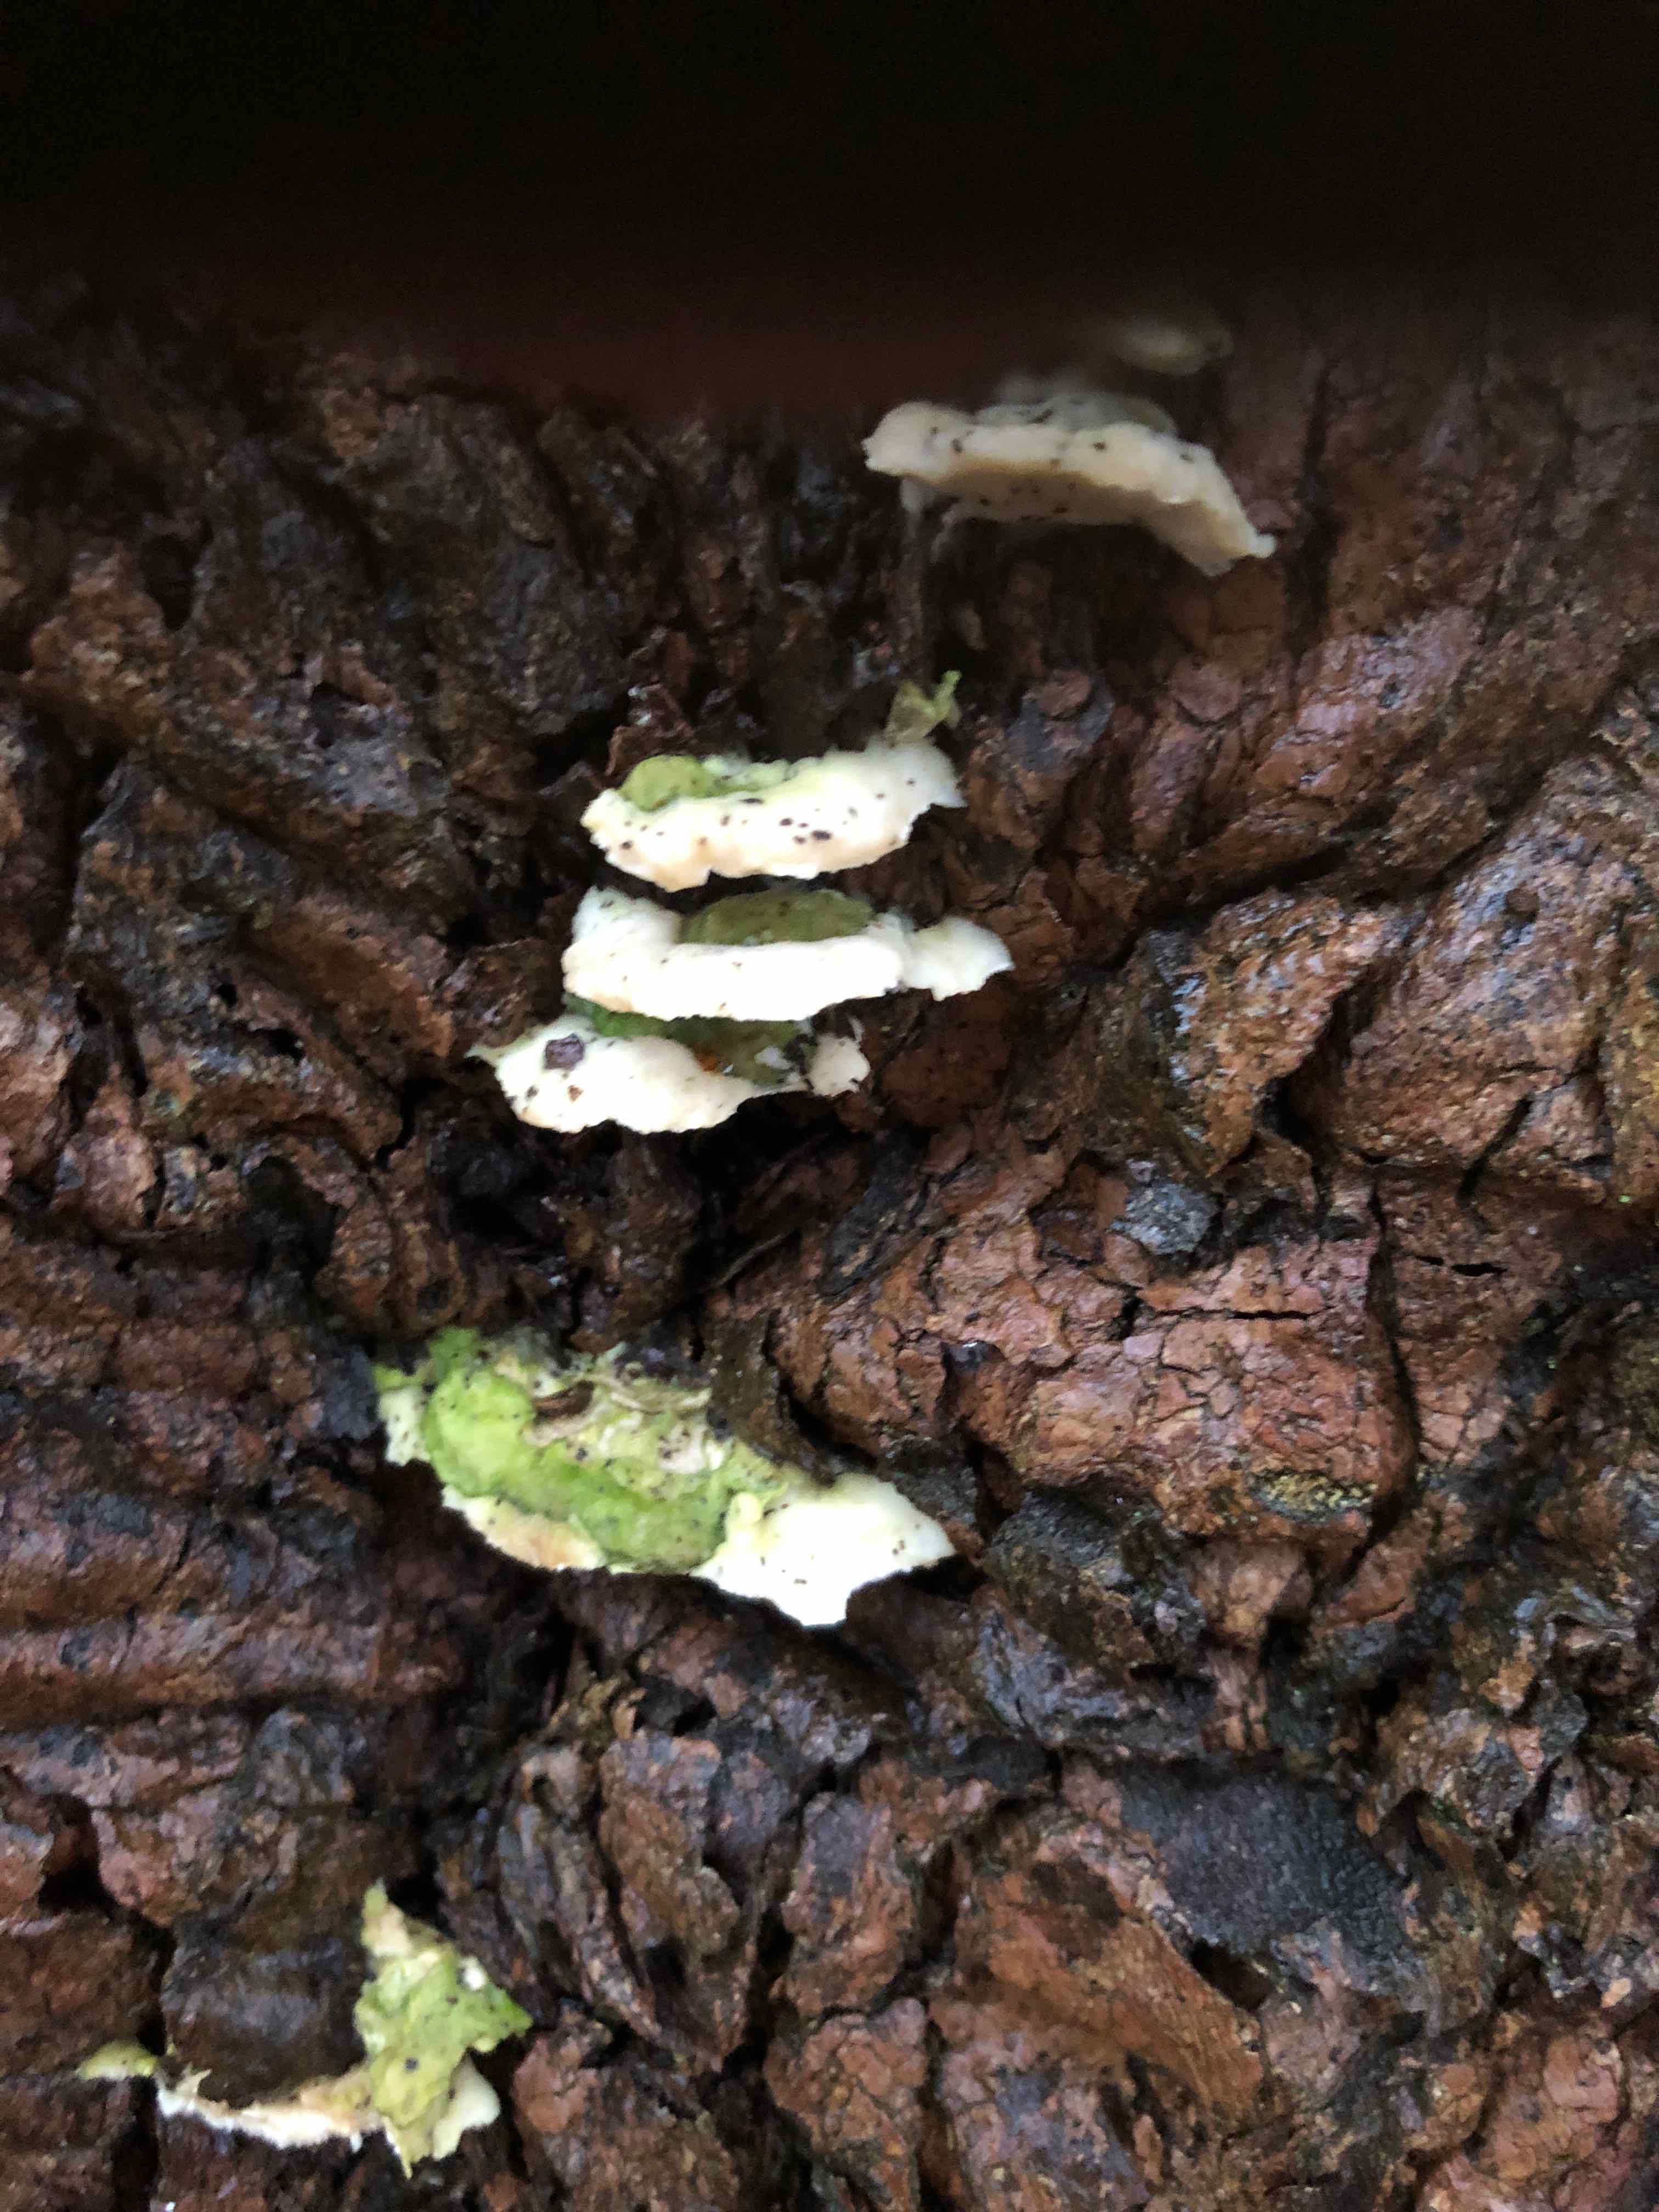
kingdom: Fungi
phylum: Basidiomycota
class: Agaricomycetes
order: Hymenochaetales
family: Oxyporaceae
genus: Oxyporus
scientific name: Oxyporus populinus
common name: sammenvokset trylleporesvamp
